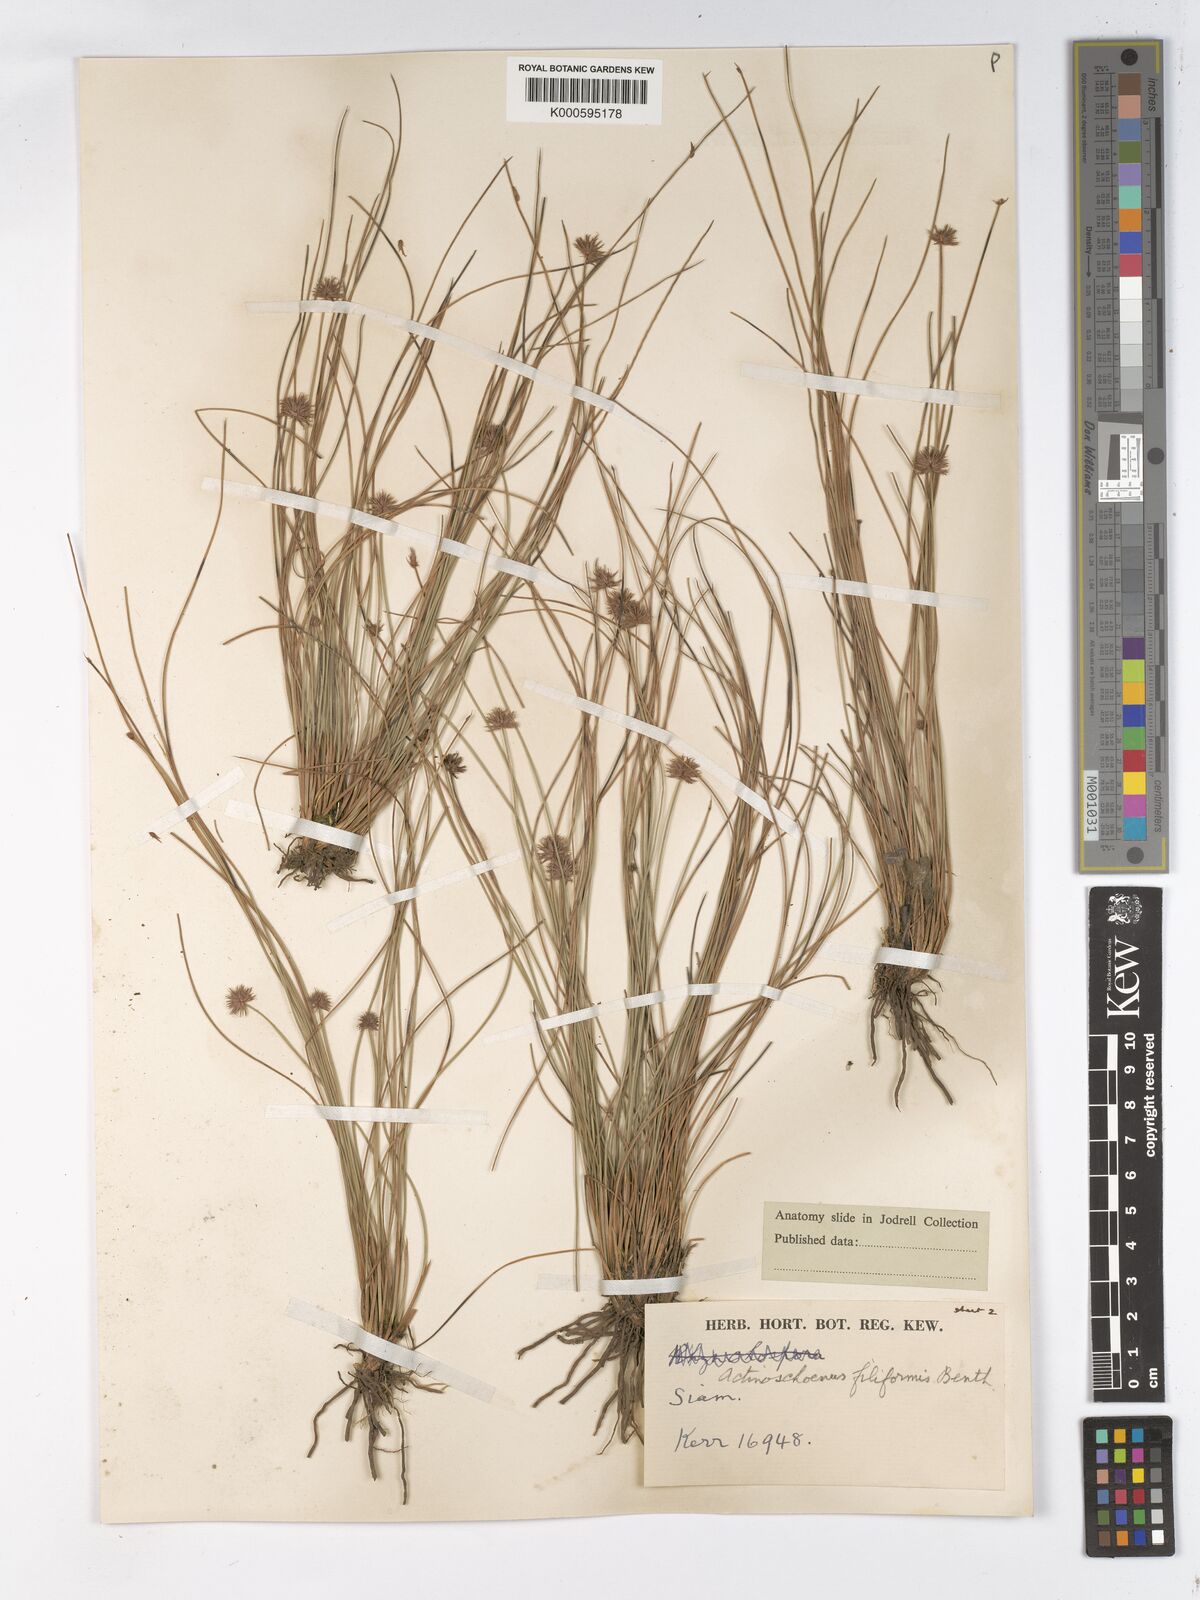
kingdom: Plantae
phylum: Tracheophyta
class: Liliopsida
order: Poales
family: Cyperaceae
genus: Actinoschoenus
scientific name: Actinoschoenus aphyllus
